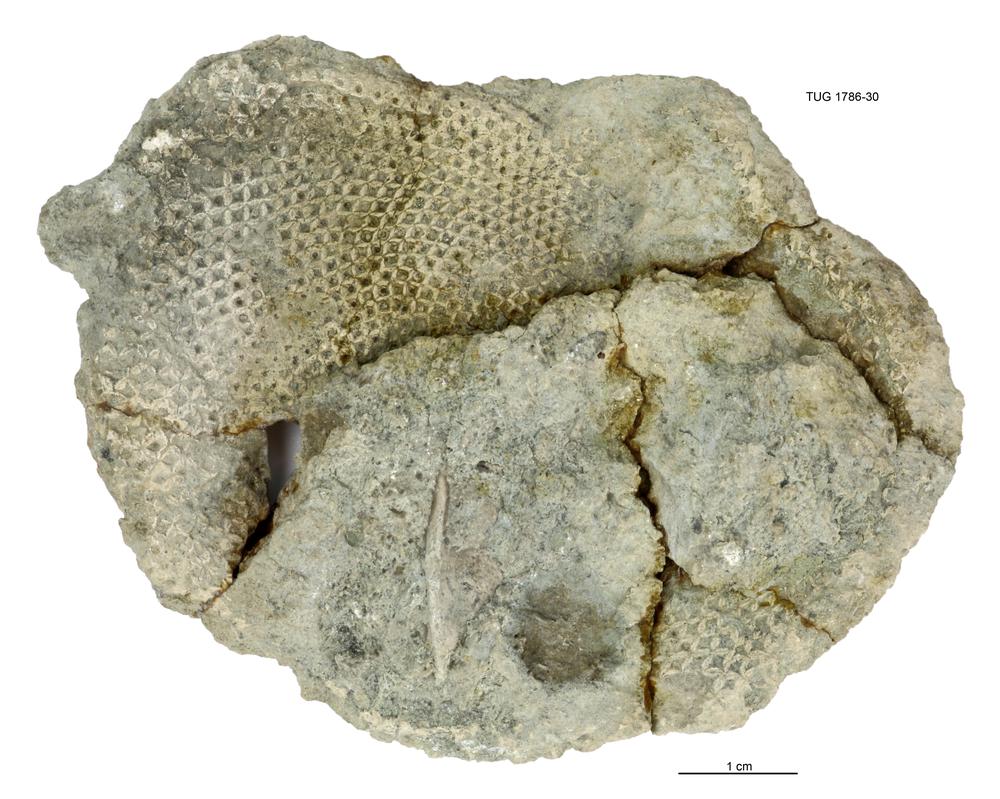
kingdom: Plantae
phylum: Chlorophyta
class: Chlorophyceae
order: Receptaculitales
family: Receptaculitaceae
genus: Receptaculites
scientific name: Receptaculites
